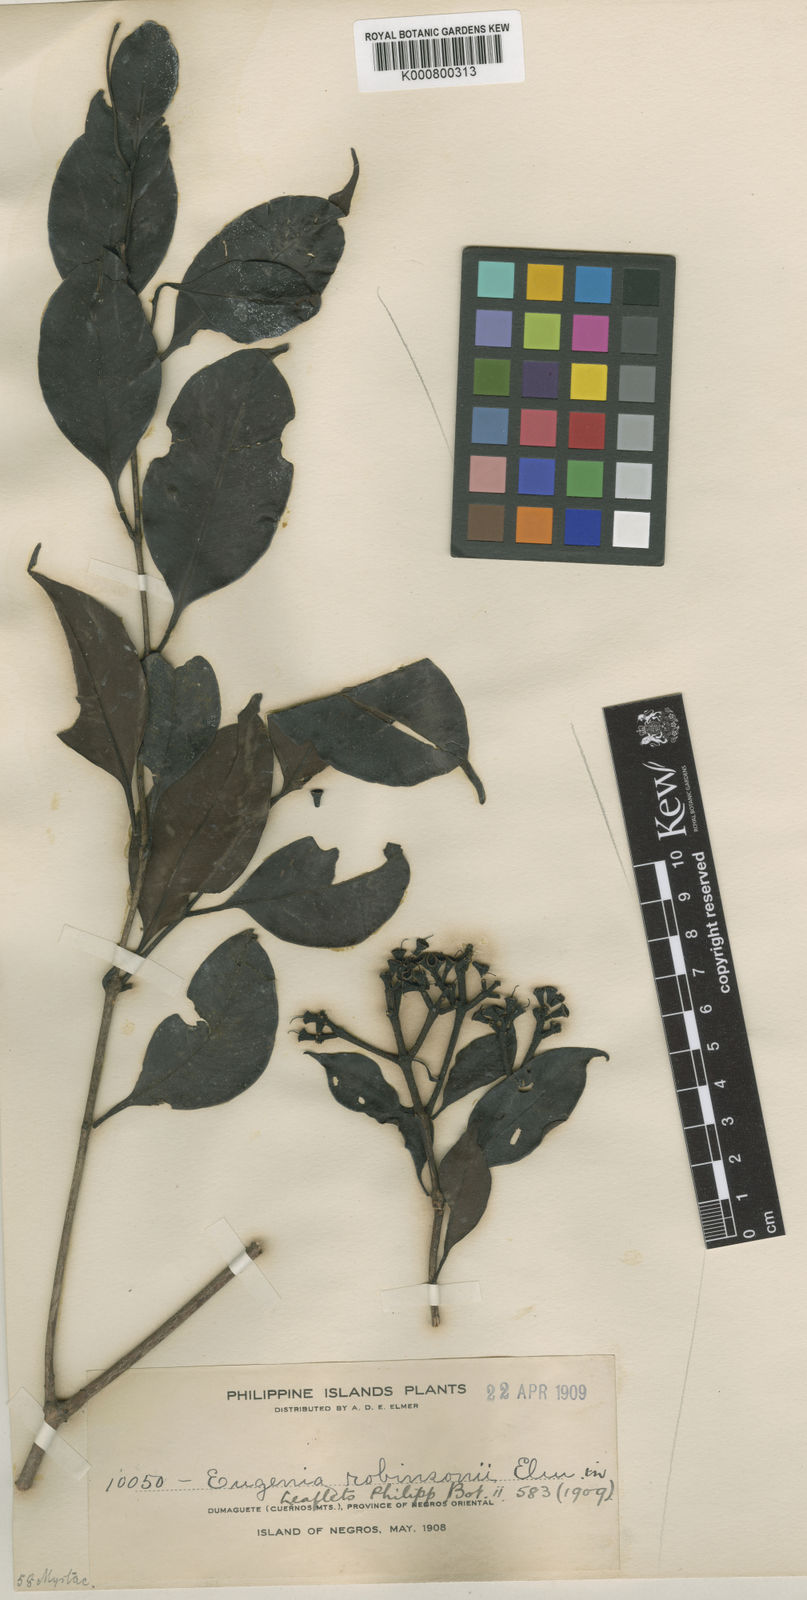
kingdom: Plantae
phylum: Tracheophyta
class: Magnoliopsida
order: Myrtales
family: Myrtaceae
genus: Syzygium
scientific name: Syzygium robinsonii
